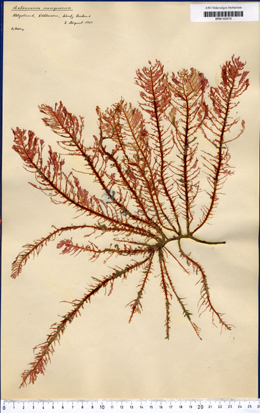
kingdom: Plantae
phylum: Rhodophyta
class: Florideophyceae
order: Ceramiales
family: Delesseriaceae
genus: Delesseria
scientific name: Delesseria sanguinea
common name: Sea beech
